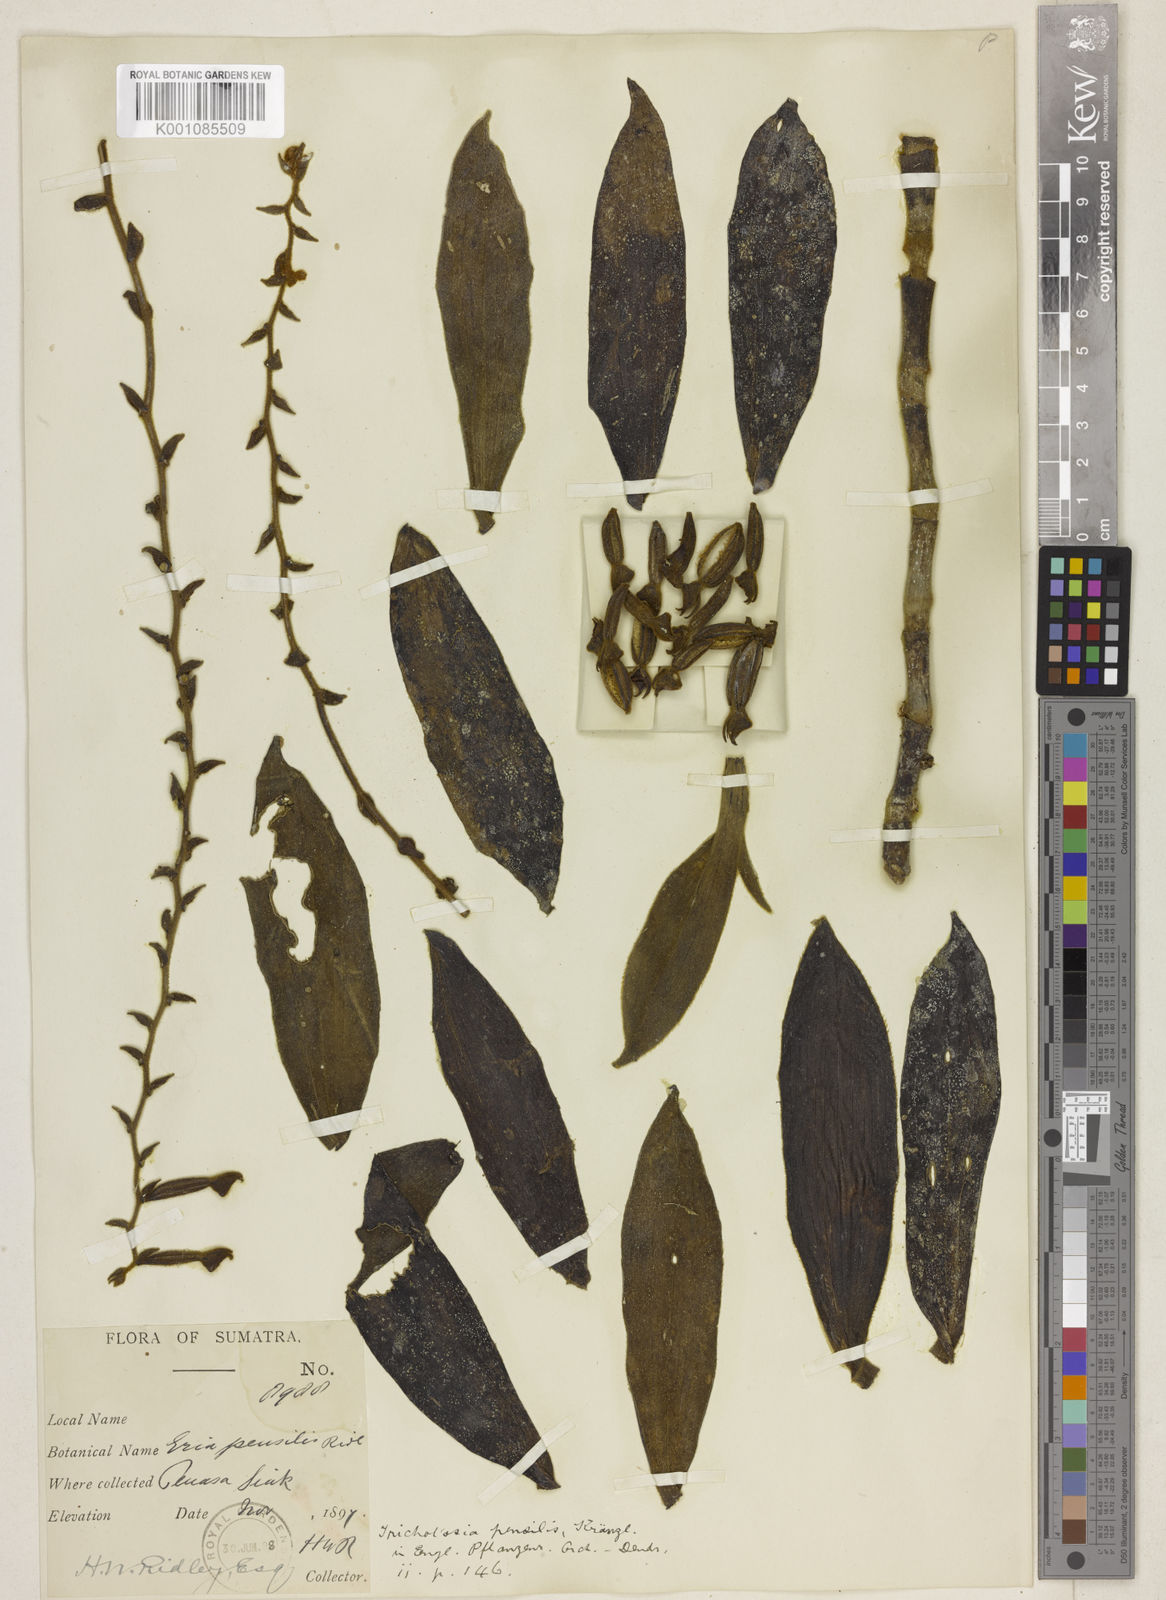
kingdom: Plantae
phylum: Tracheophyta
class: Liliopsida
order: Asparagales
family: Orchidaceae
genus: Trichotosia
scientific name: Trichotosia pensilis
